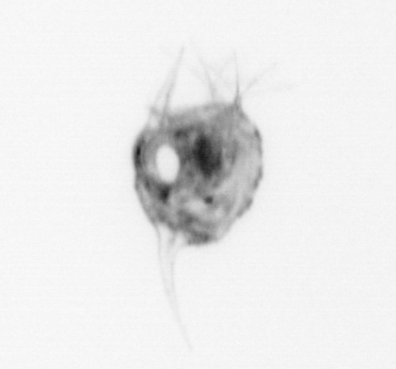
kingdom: Animalia
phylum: Arthropoda
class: Malacostraca
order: Decapoda
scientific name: Decapoda
